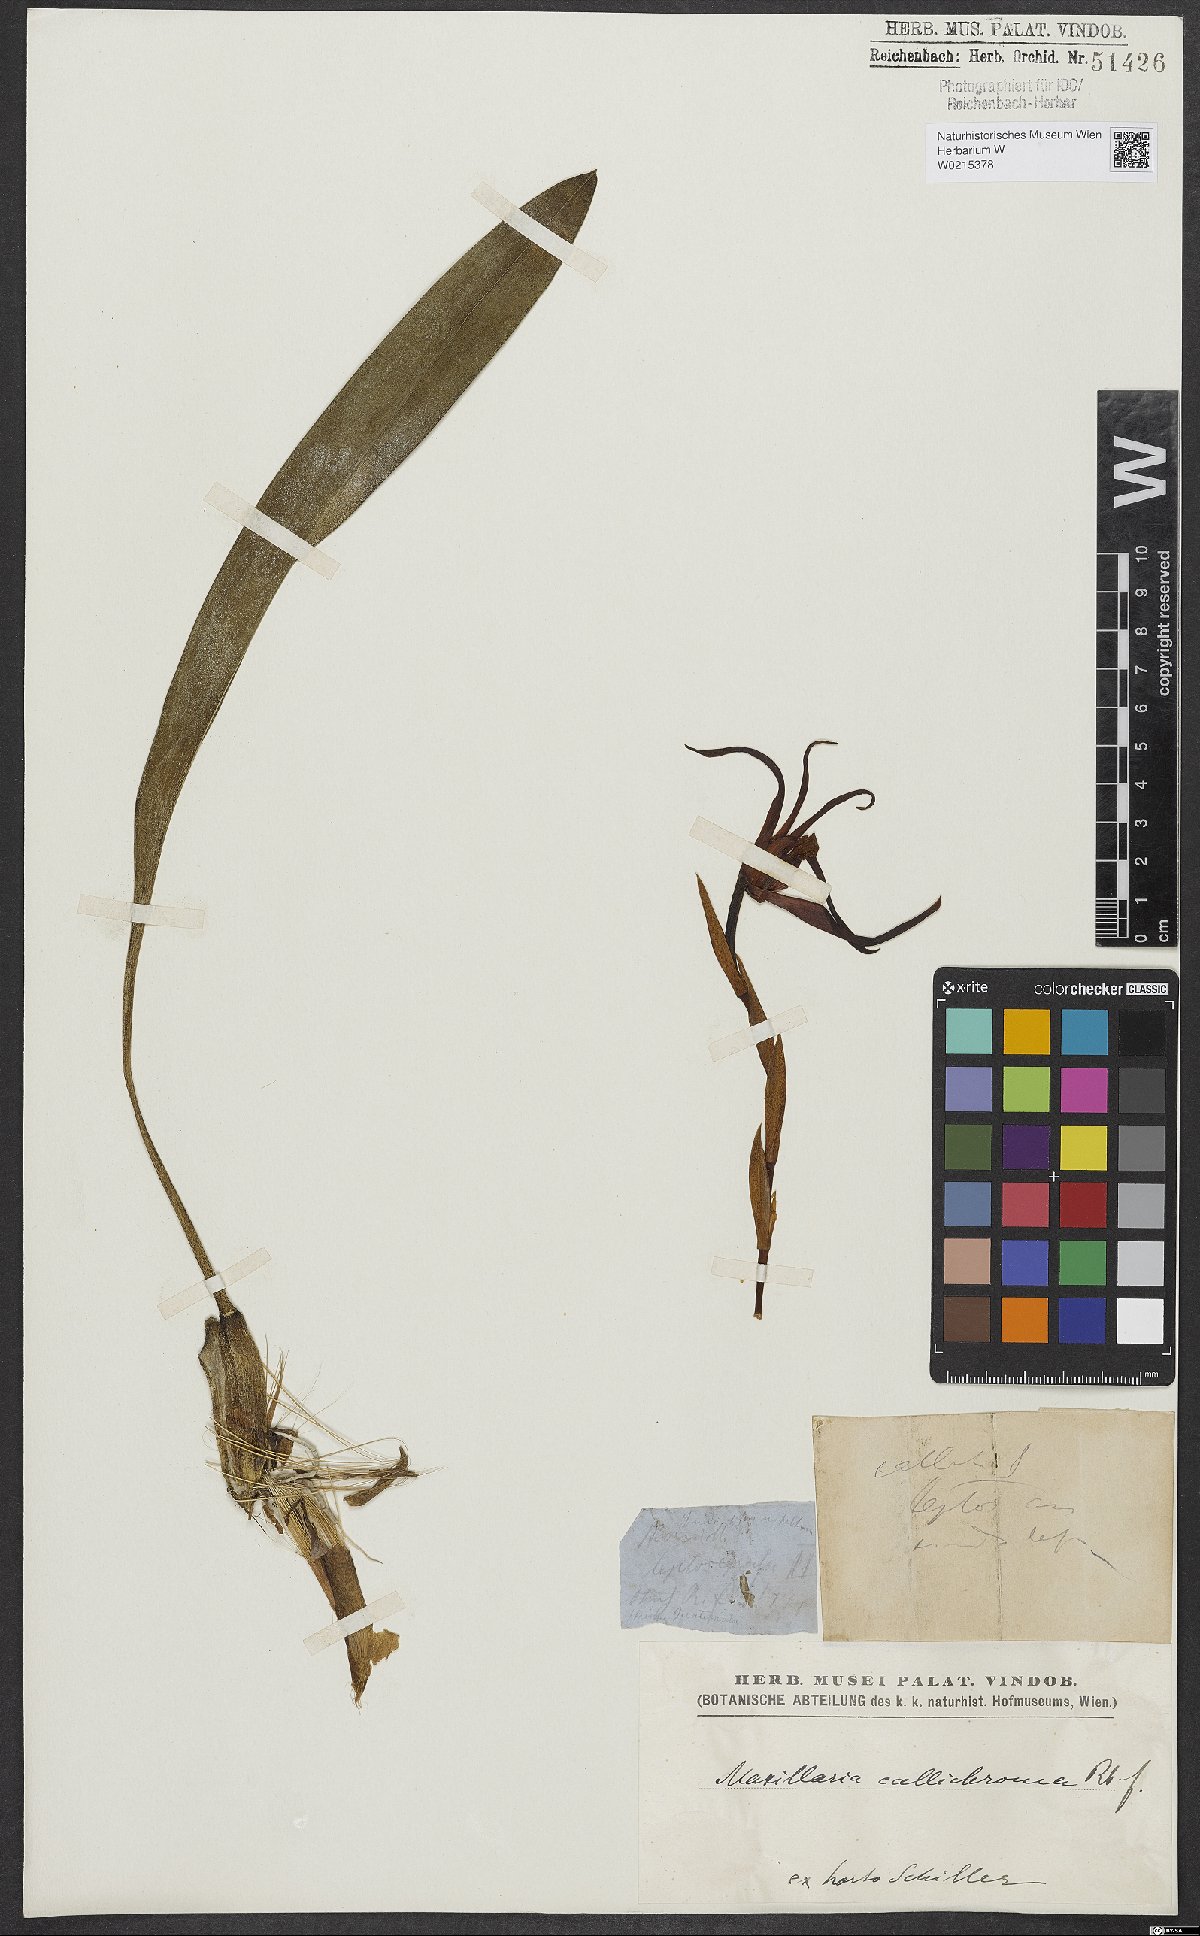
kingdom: Plantae
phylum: Tracheophyta
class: Liliopsida
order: Asparagales
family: Orchidaceae
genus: Maxillaria
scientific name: Maxillaria callichroma
